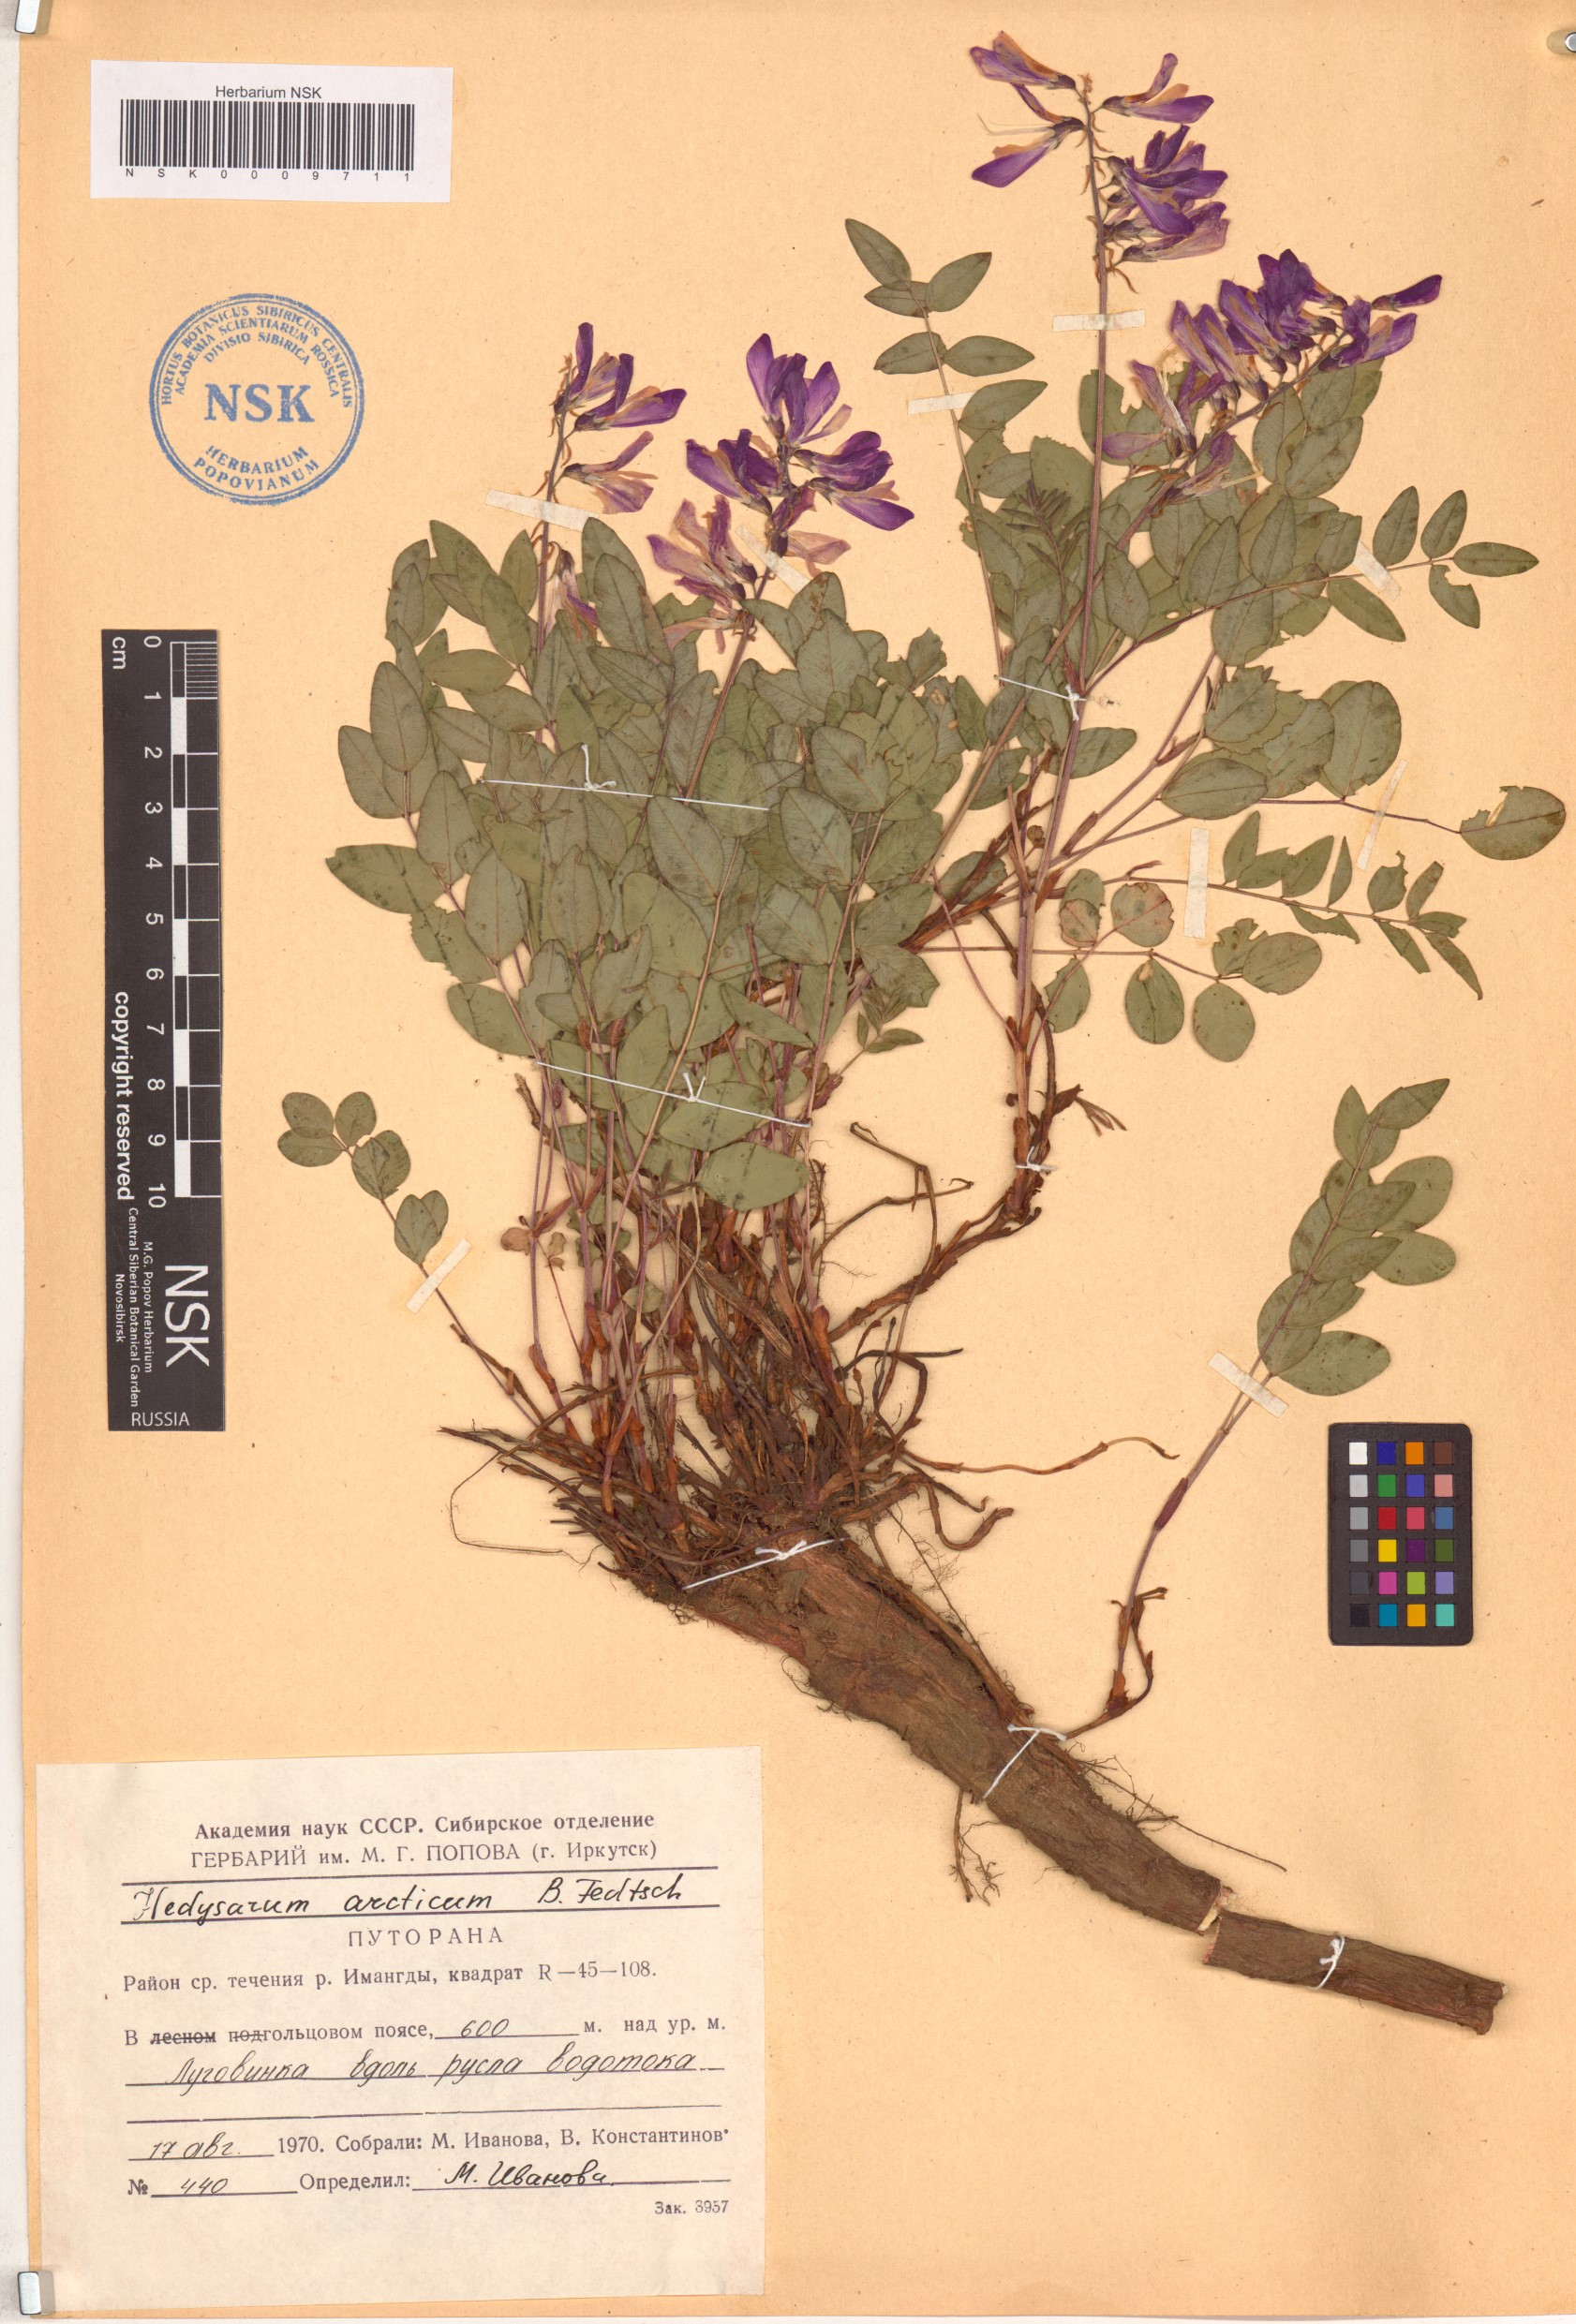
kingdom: Plantae
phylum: Tracheophyta
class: Magnoliopsida
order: Fabales
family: Fabaceae
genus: Hedysarum
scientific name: Hedysarum hedysaroides
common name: Alpine french-honeysuckle
